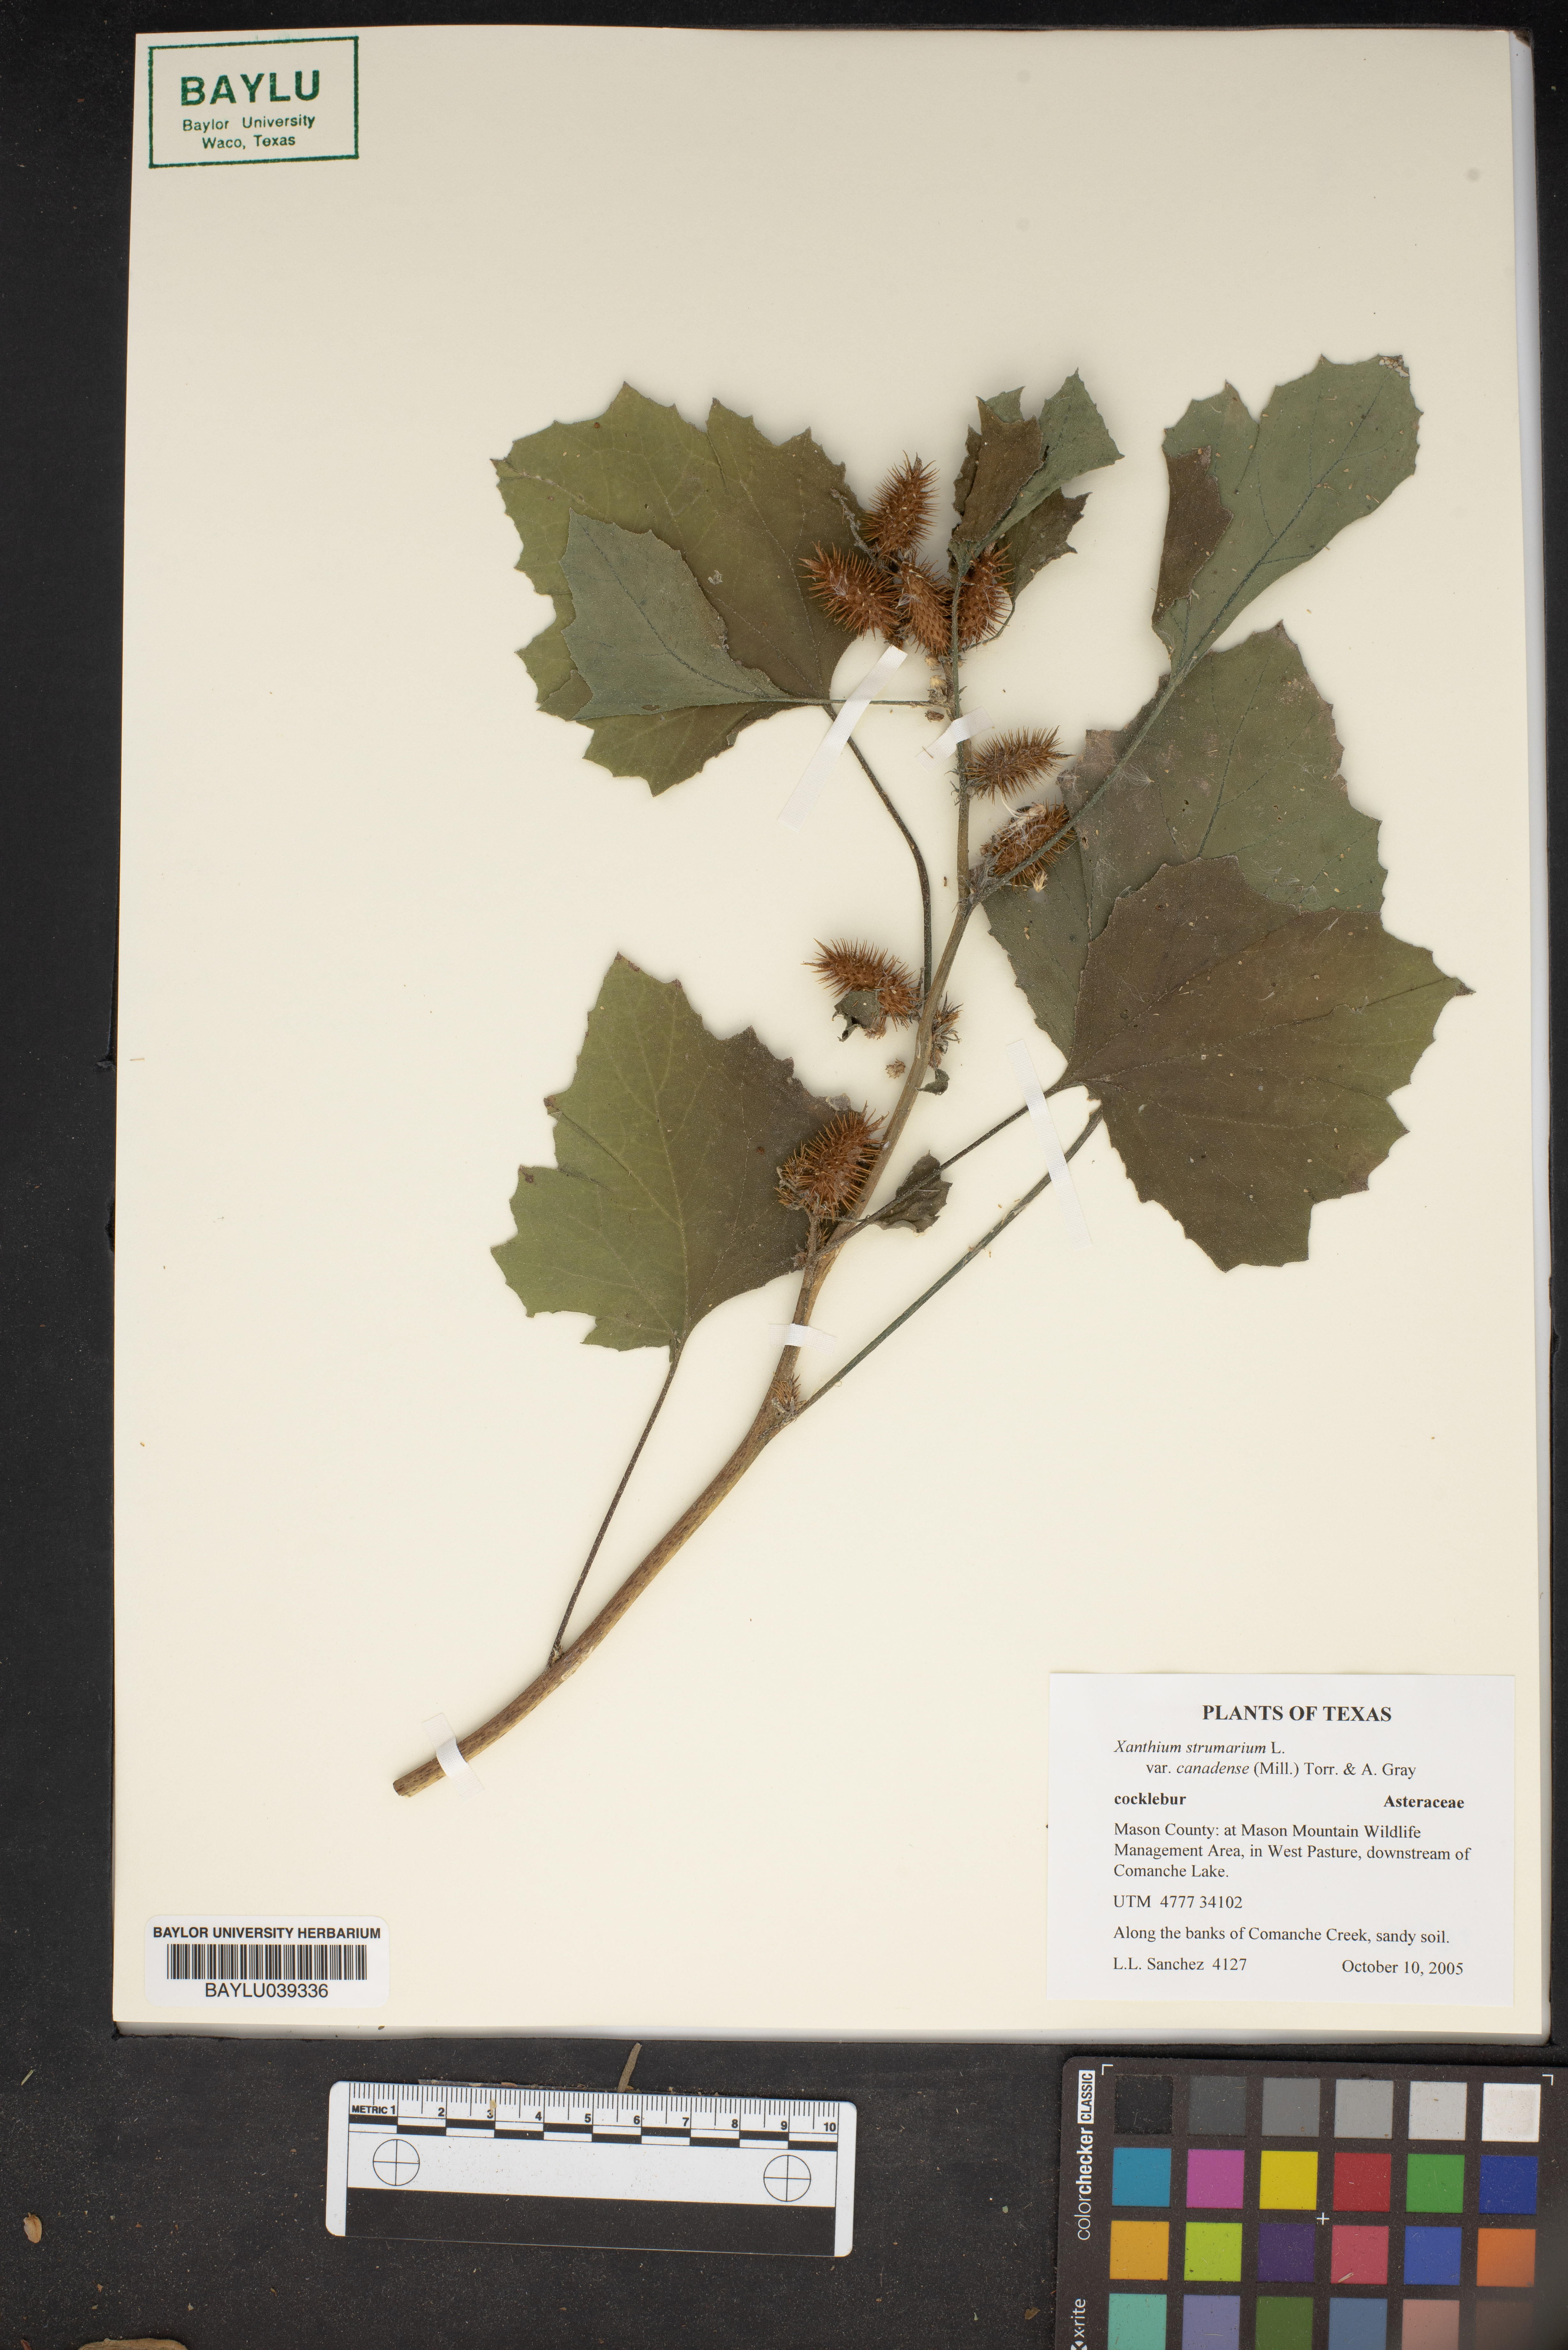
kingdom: Plantae
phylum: Tracheophyta
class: Magnoliopsida
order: Asterales
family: Asteraceae
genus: Xanthium
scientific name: Xanthium orientale
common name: Californian burr
